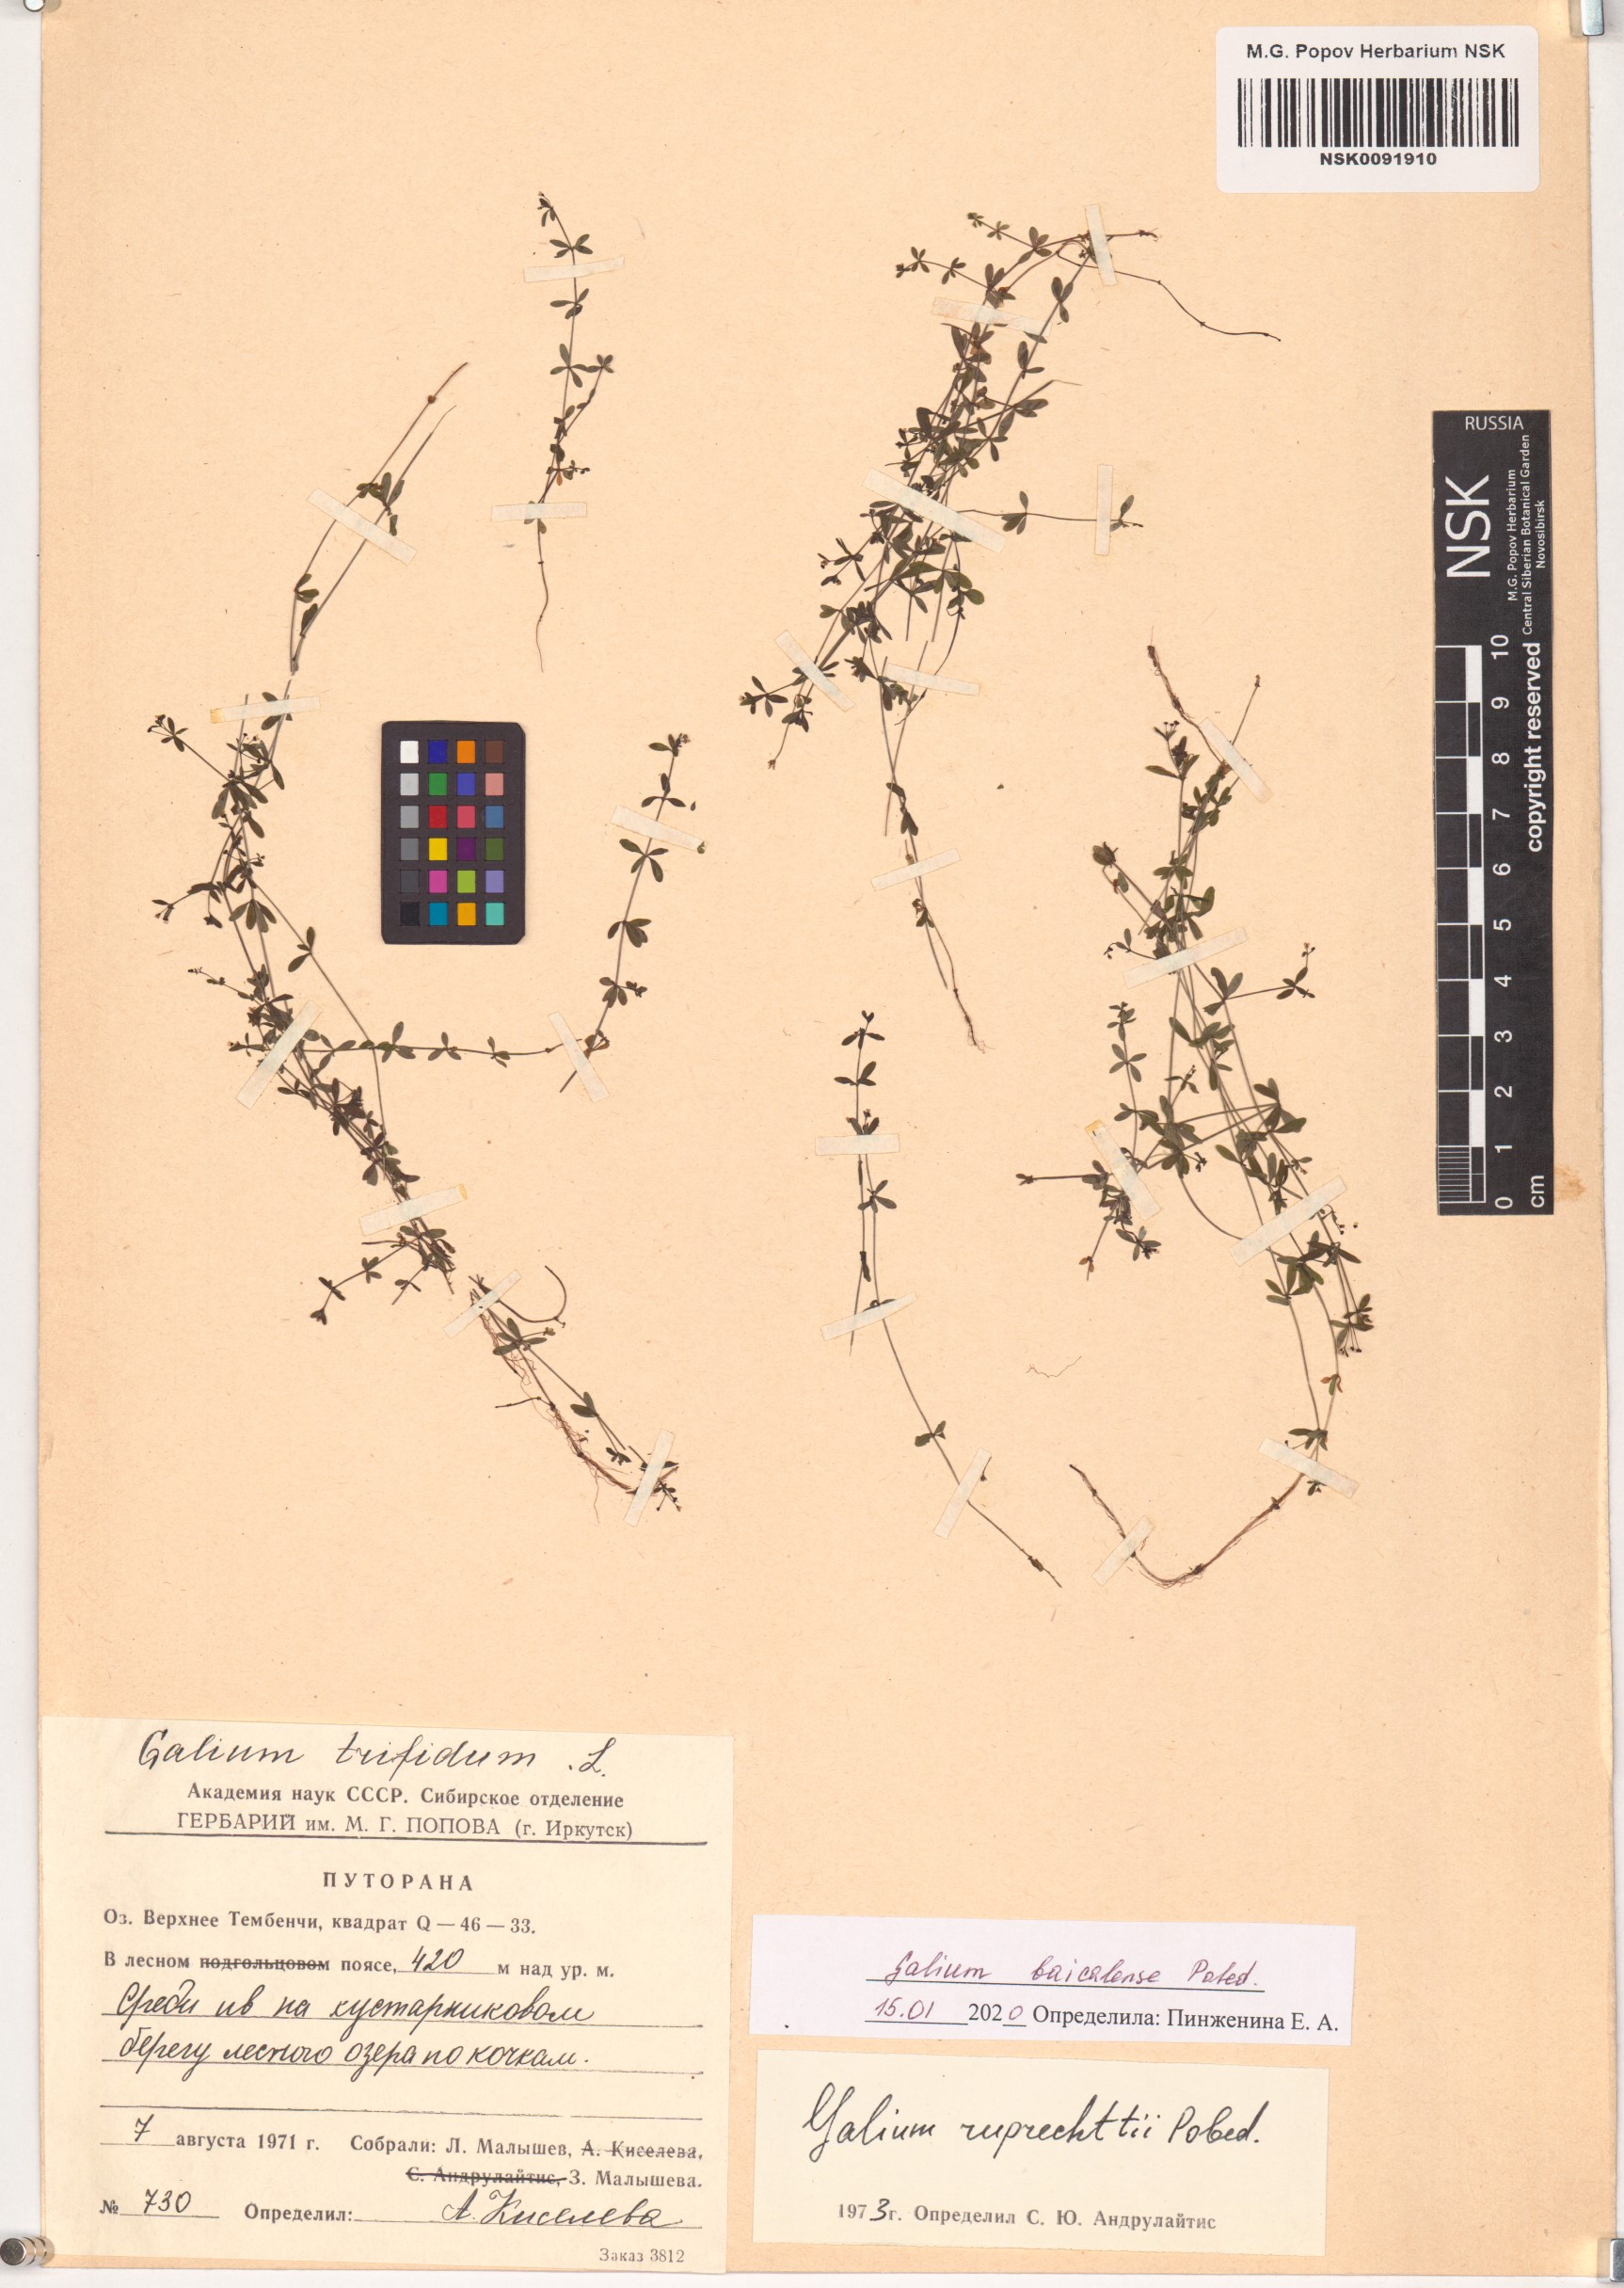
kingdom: Plantae
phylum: Tracheophyta
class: Magnoliopsida
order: Gentianales
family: Rubiaceae
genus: Galium
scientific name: Galium trifidum
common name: Small bedstraw
